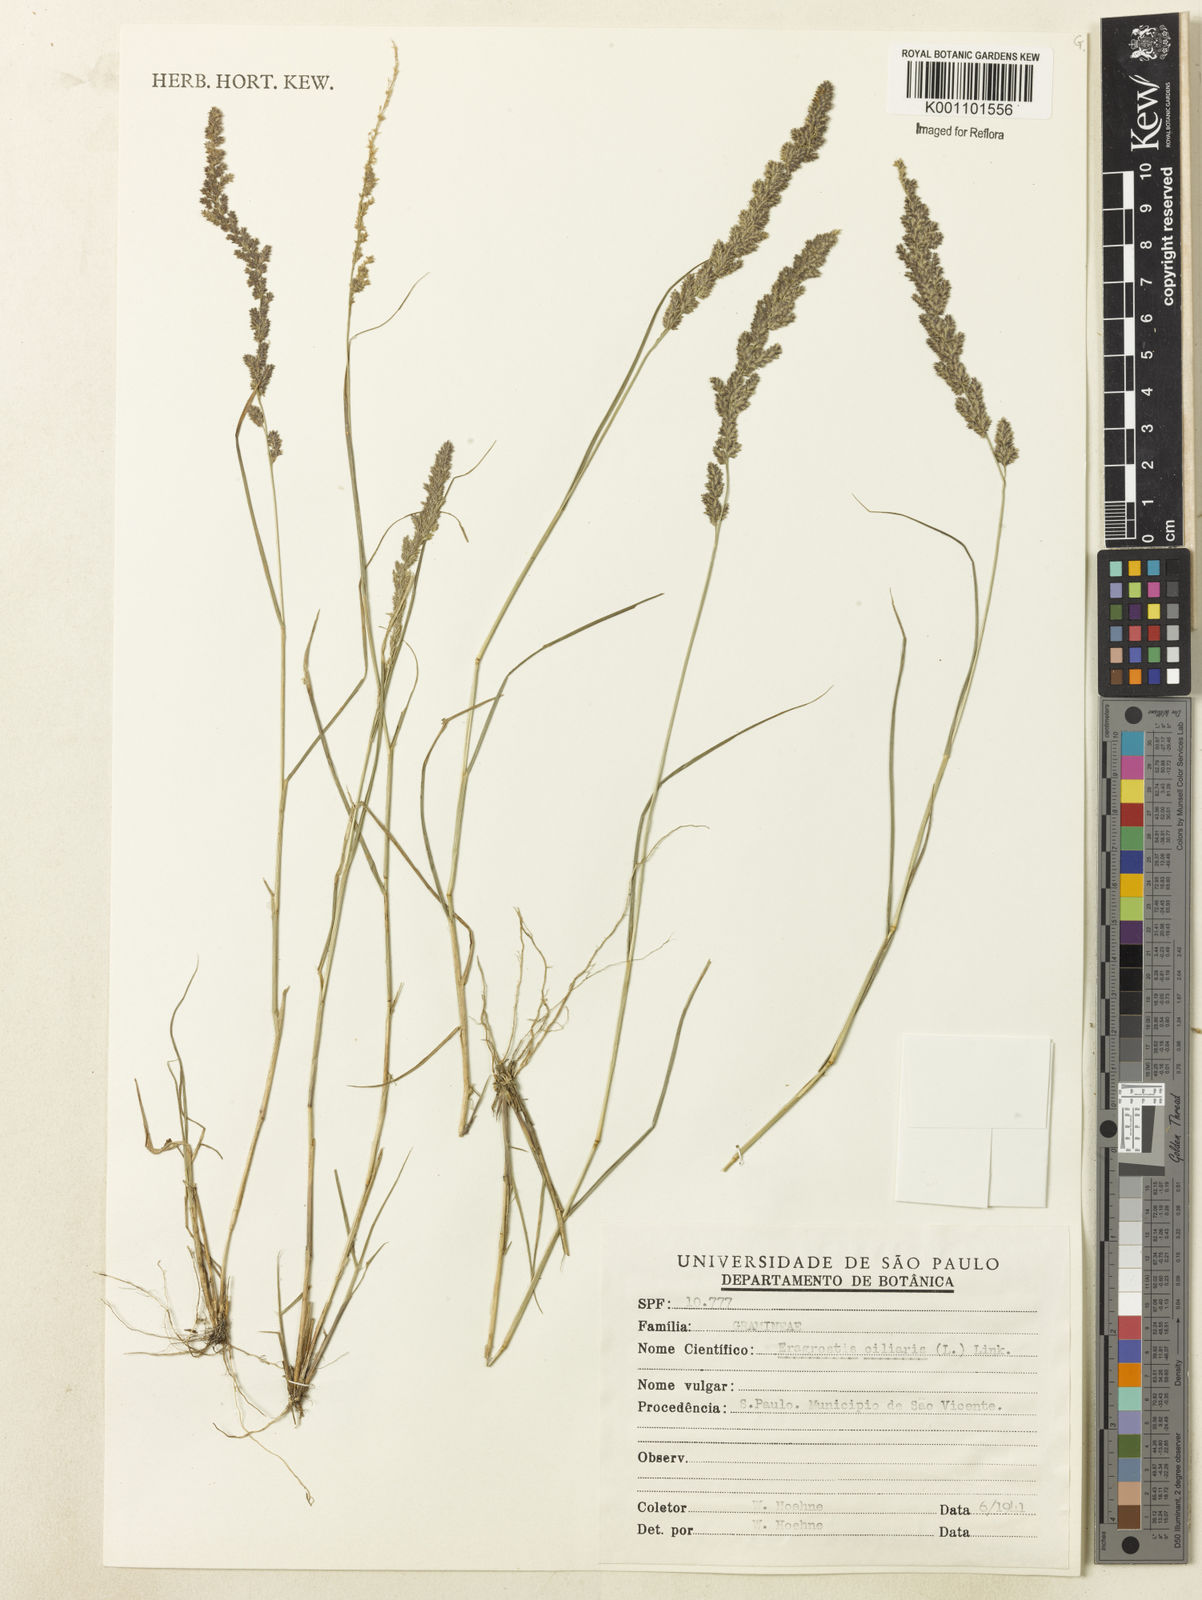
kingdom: Plantae
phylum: Tracheophyta
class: Liliopsida
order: Poales
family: Poaceae
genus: Eragrostis
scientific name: Eragrostis ciliaris
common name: Gophertail lovegrass
